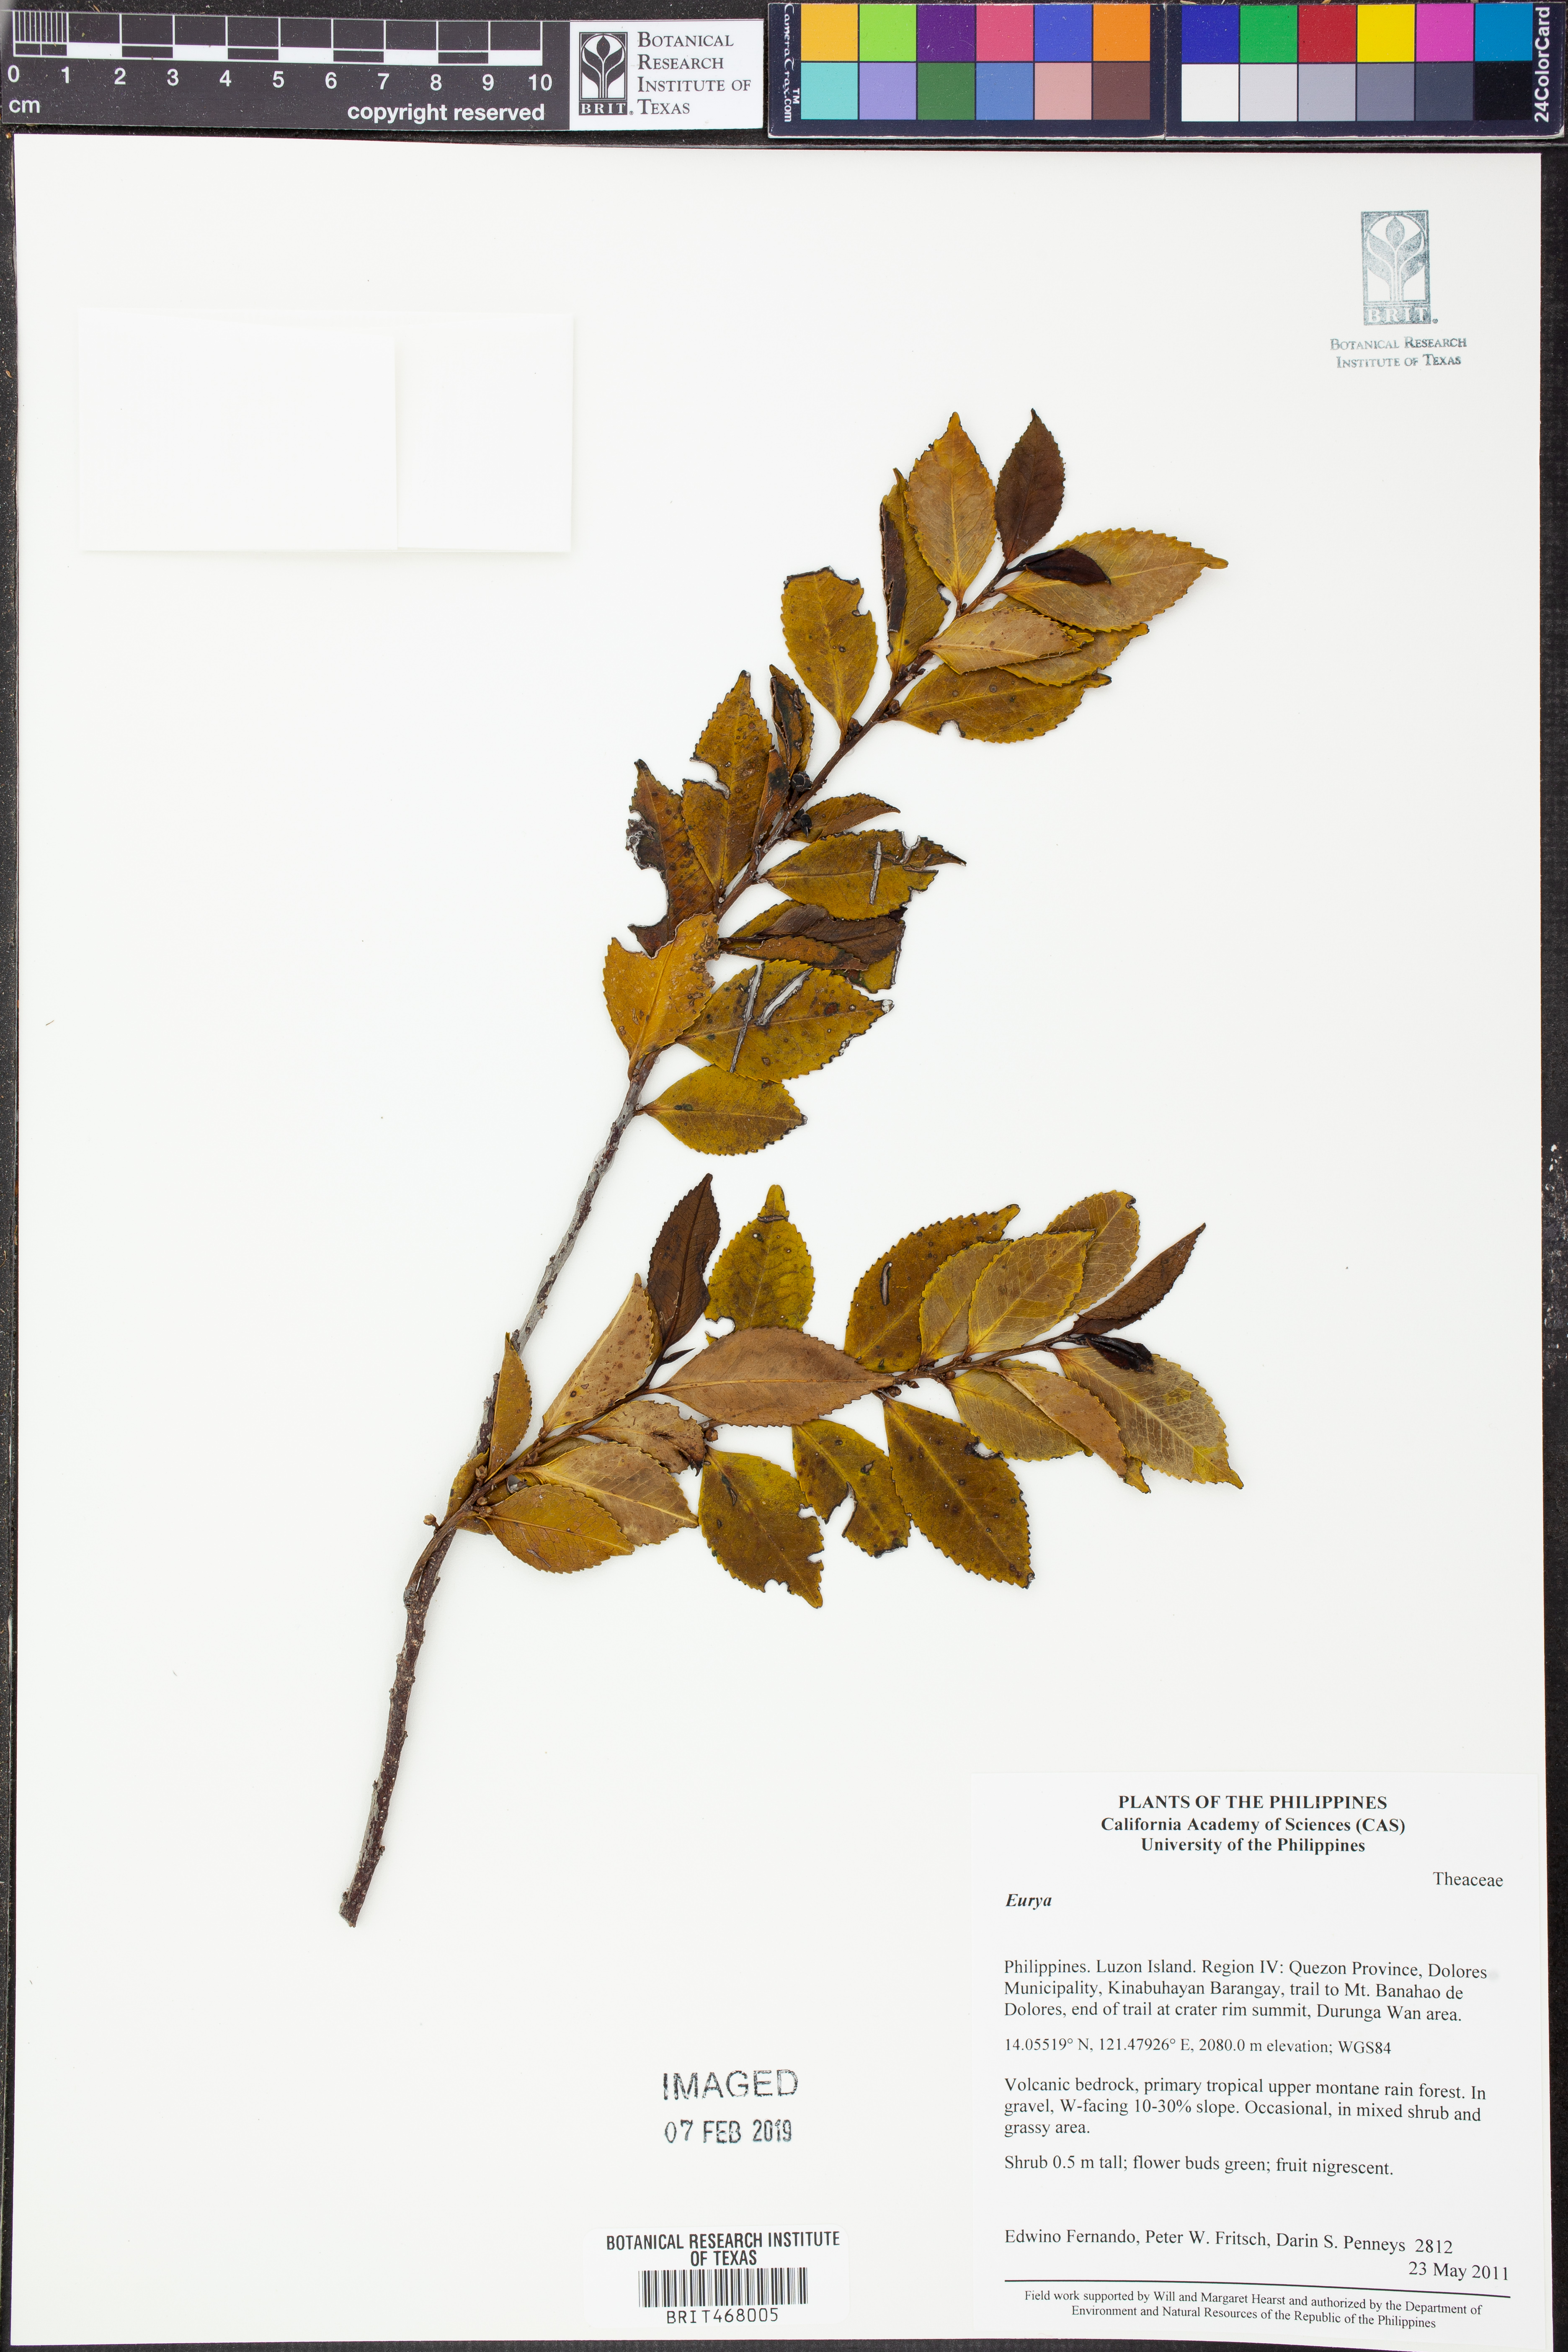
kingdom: Plantae
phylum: Tracheophyta
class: Magnoliopsida
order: Ericales
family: Pentaphylacaceae
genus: Eurya
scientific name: Eurya
